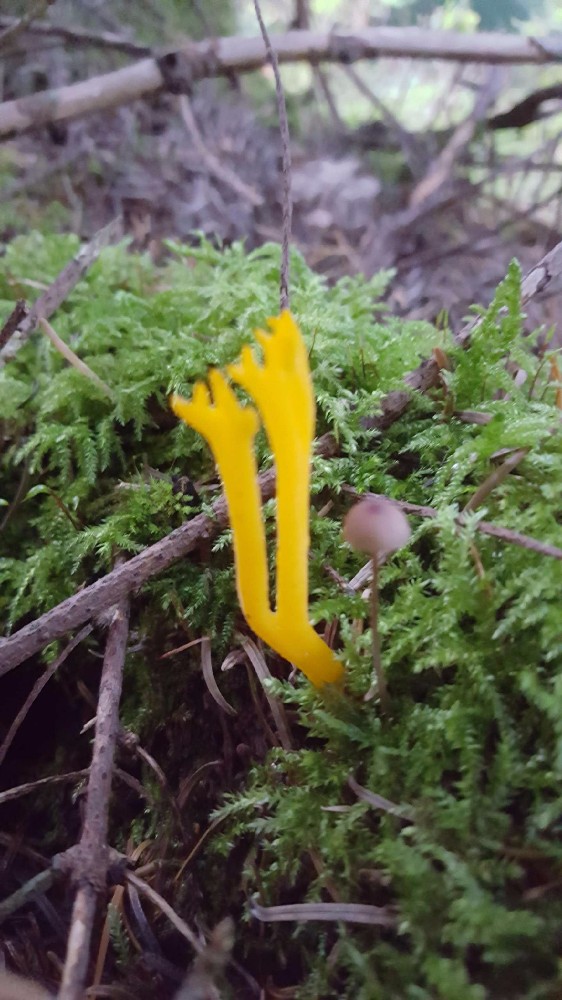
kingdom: Fungi
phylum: Basidiomycota
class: Dacrymycetes
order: Dacrymycetales
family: Dacrymycetaceae
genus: Calocera
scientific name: Calocera viscosa
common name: almindelig guldgaffel
